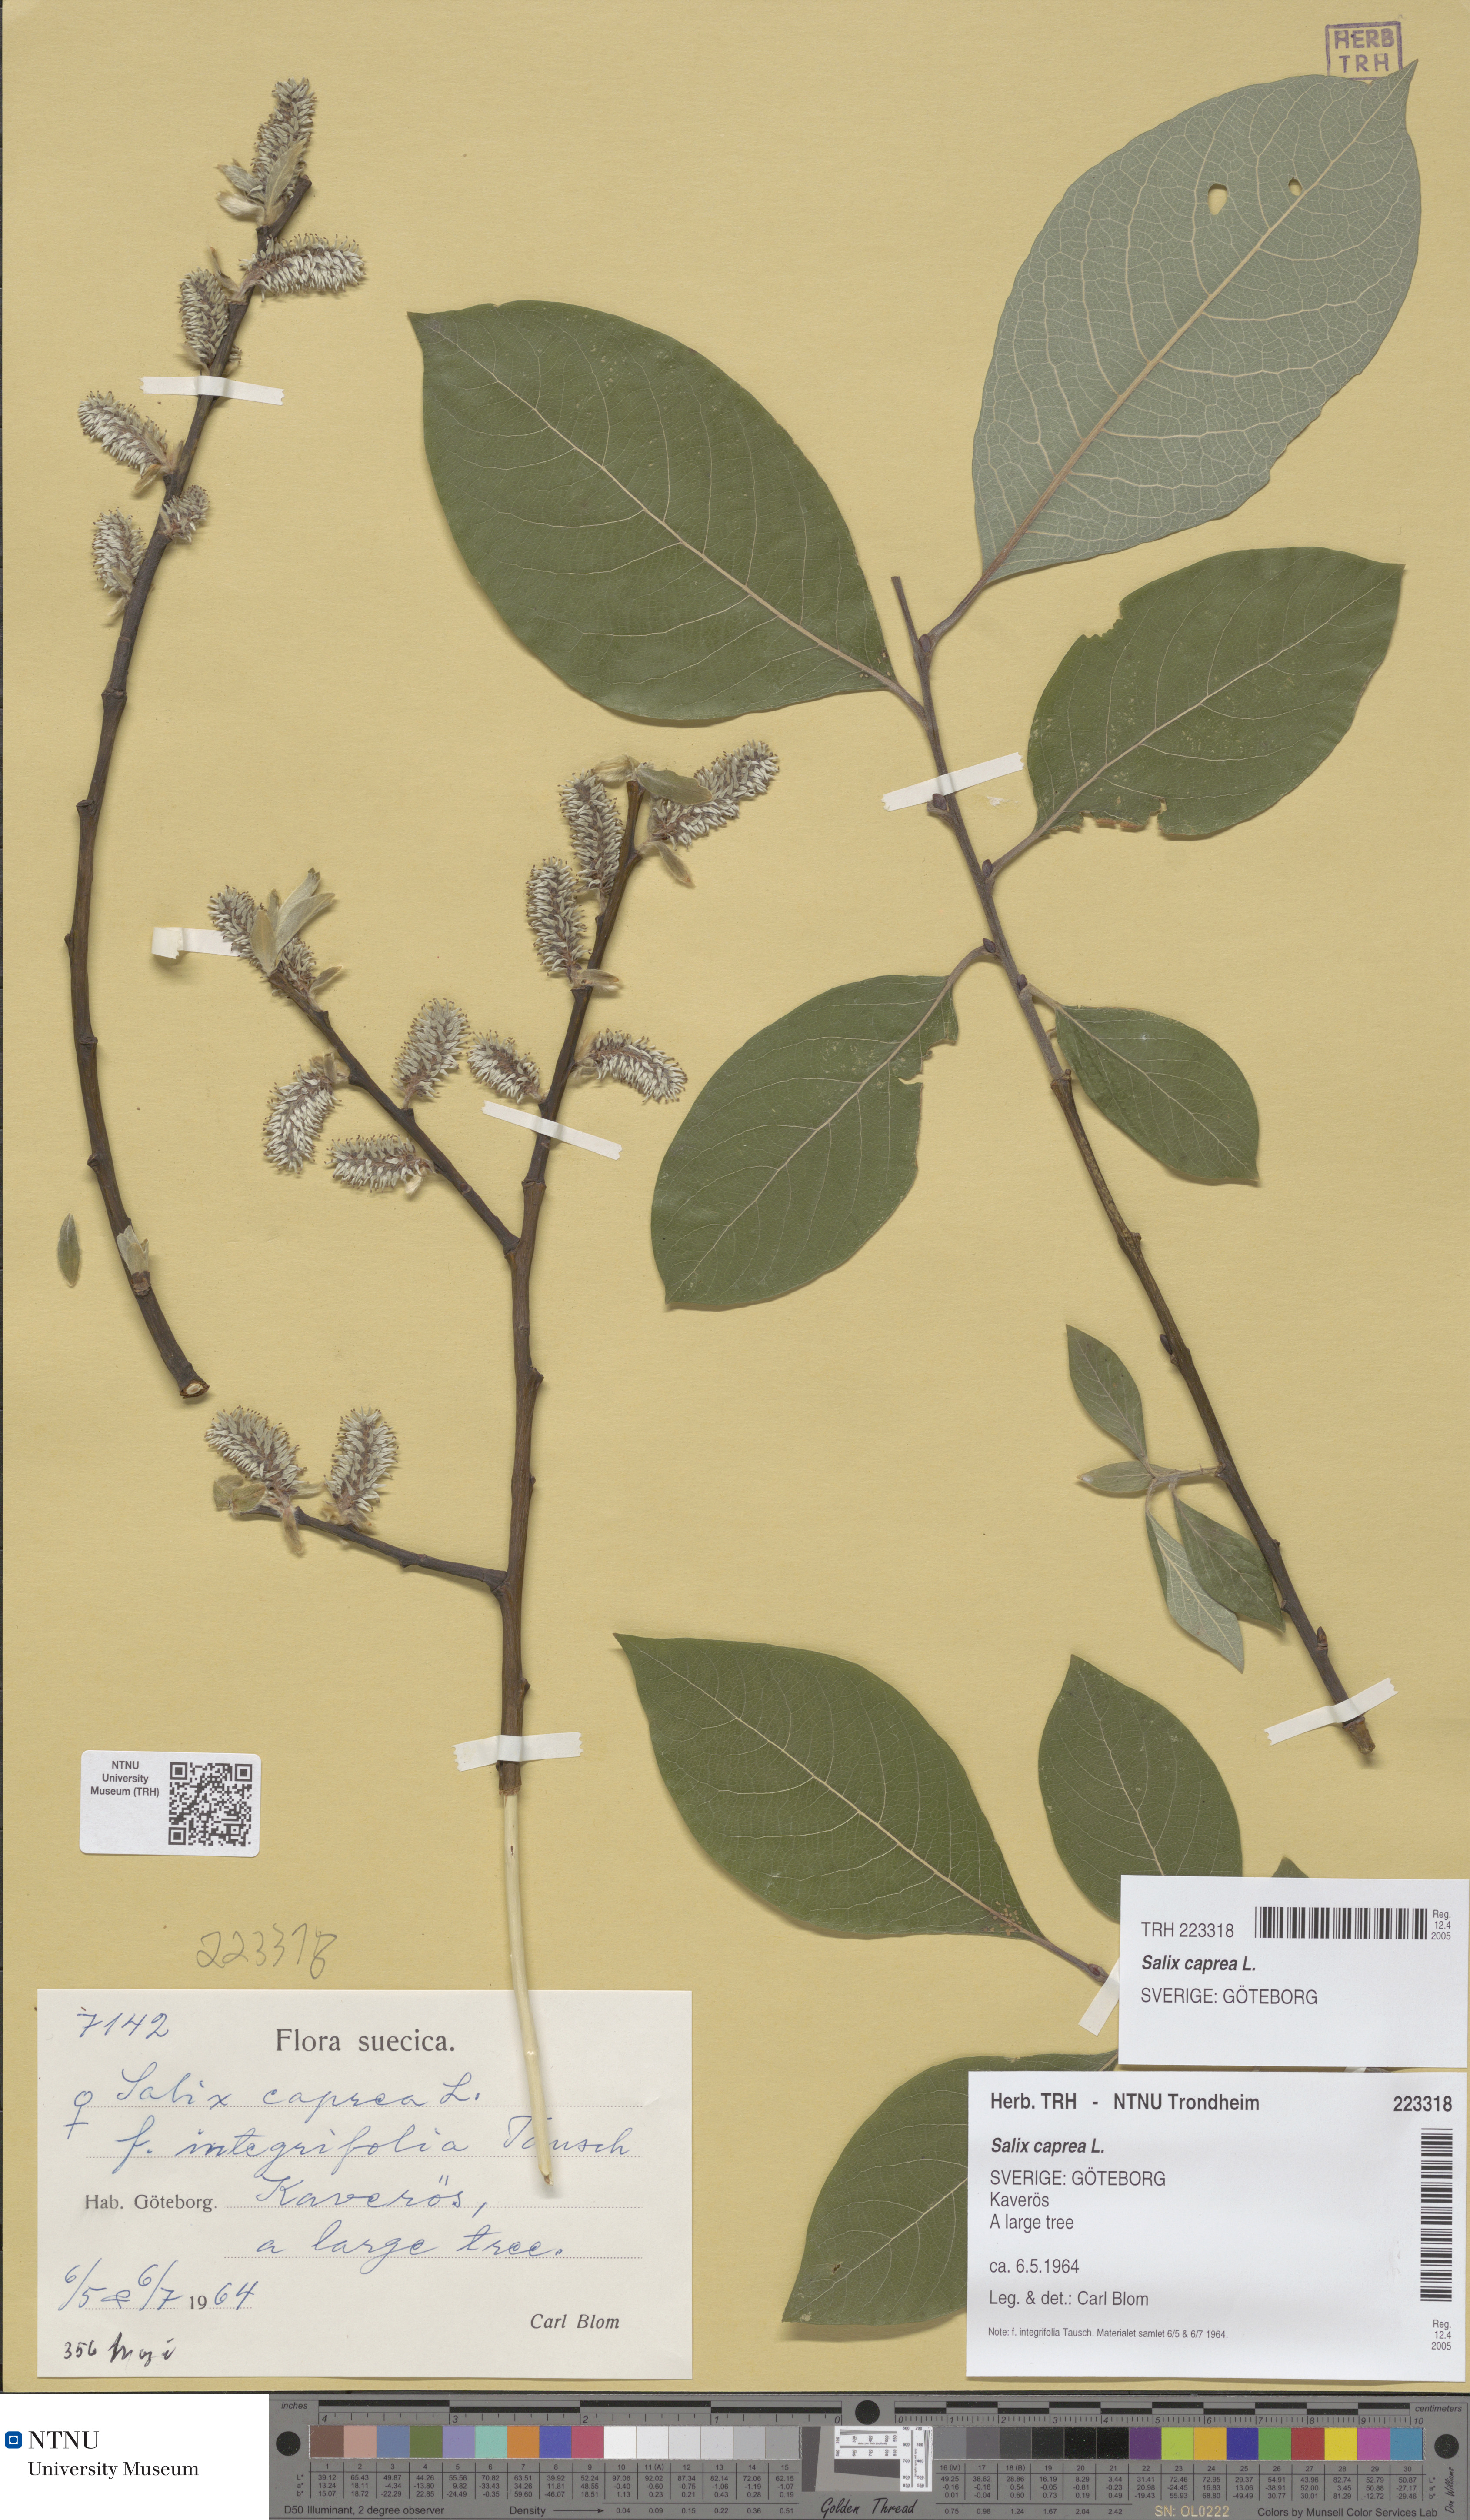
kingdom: Plantae
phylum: Tracheophyta
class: Magnoliopsida
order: Malpighiales
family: Salicaceae
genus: Salix
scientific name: Salix caprea
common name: Goat willow
